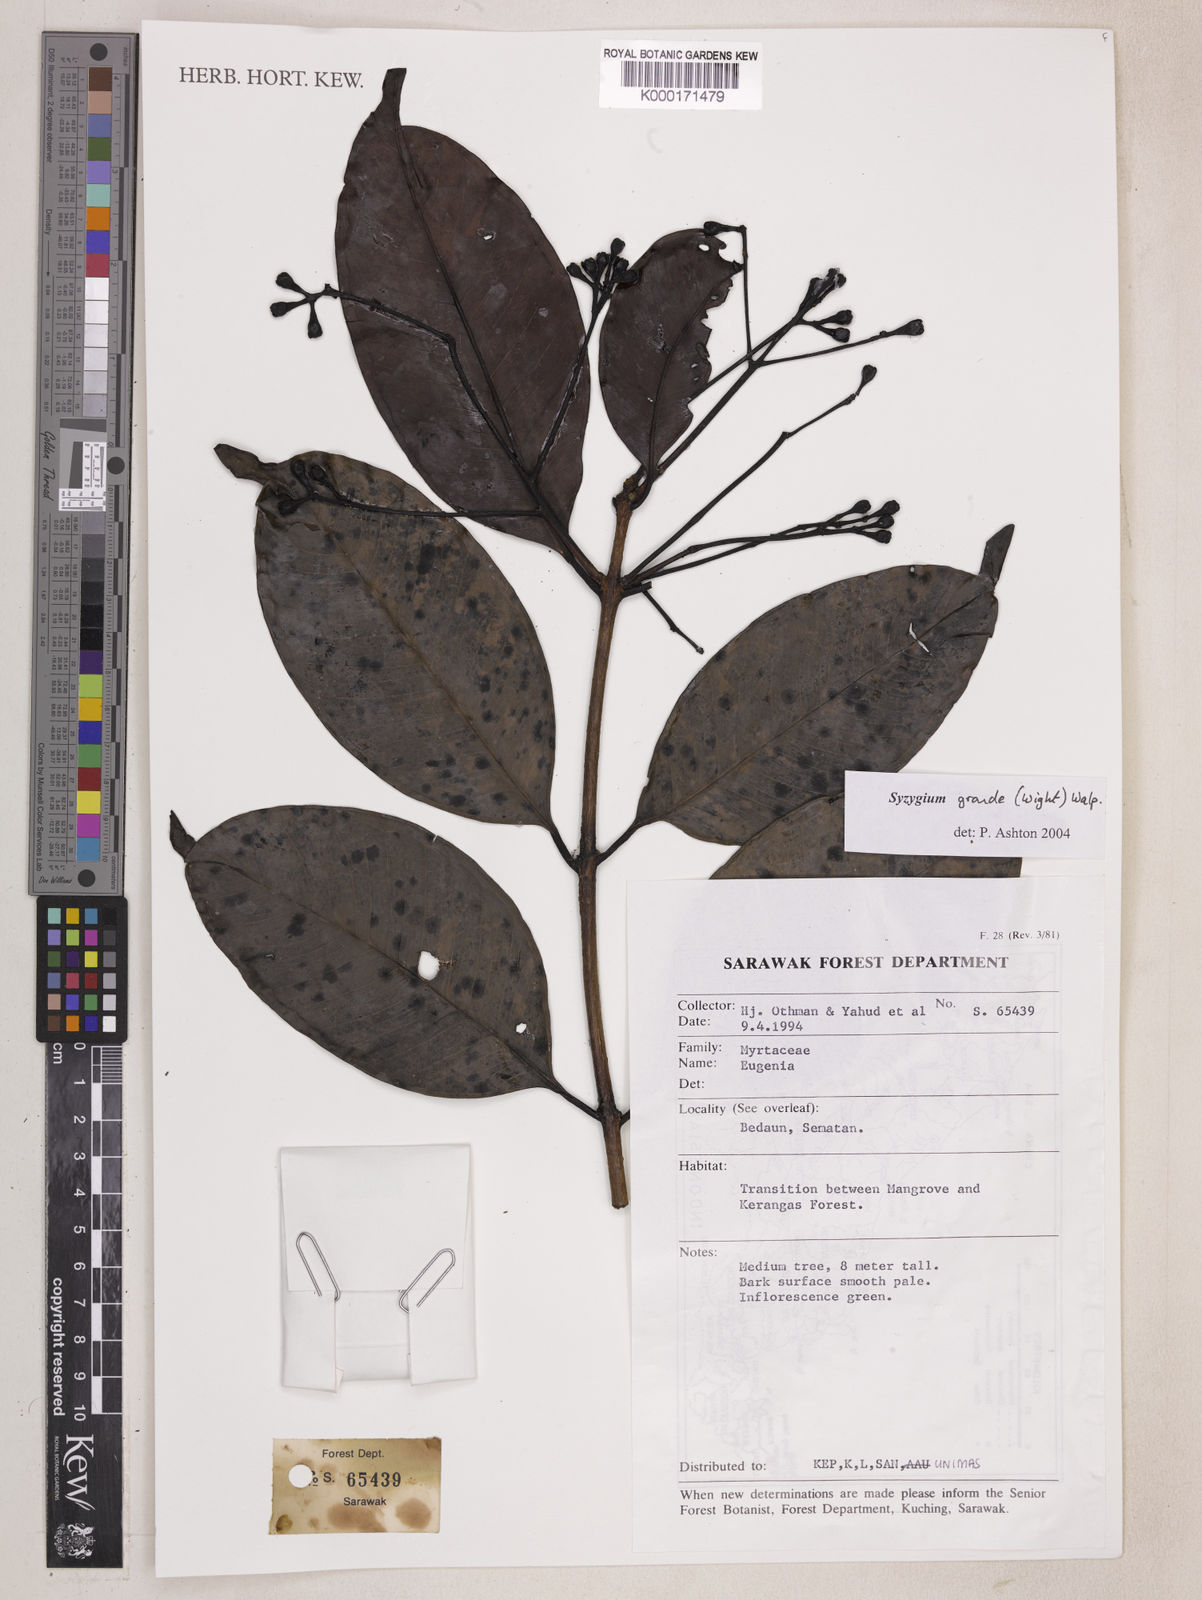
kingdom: Plantae
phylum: Tracheophyta
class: Magnoliopsida
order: Myrtales
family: Myrtaceae
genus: Syzygium
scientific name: Syzygium grande
